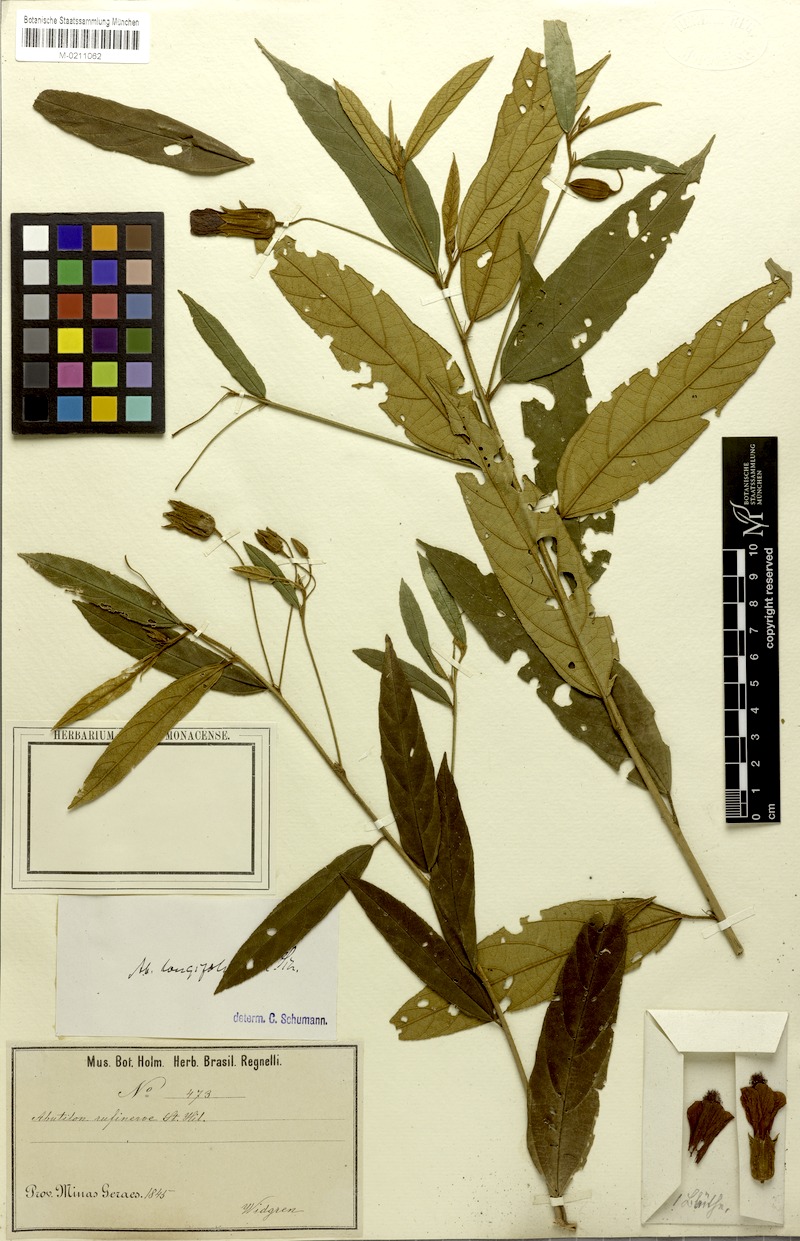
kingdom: Plantae
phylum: Tracheophyta
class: Magnoliopsida
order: Malvales
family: Malvaceae
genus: Callianthe
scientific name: Callianthe longifolia
